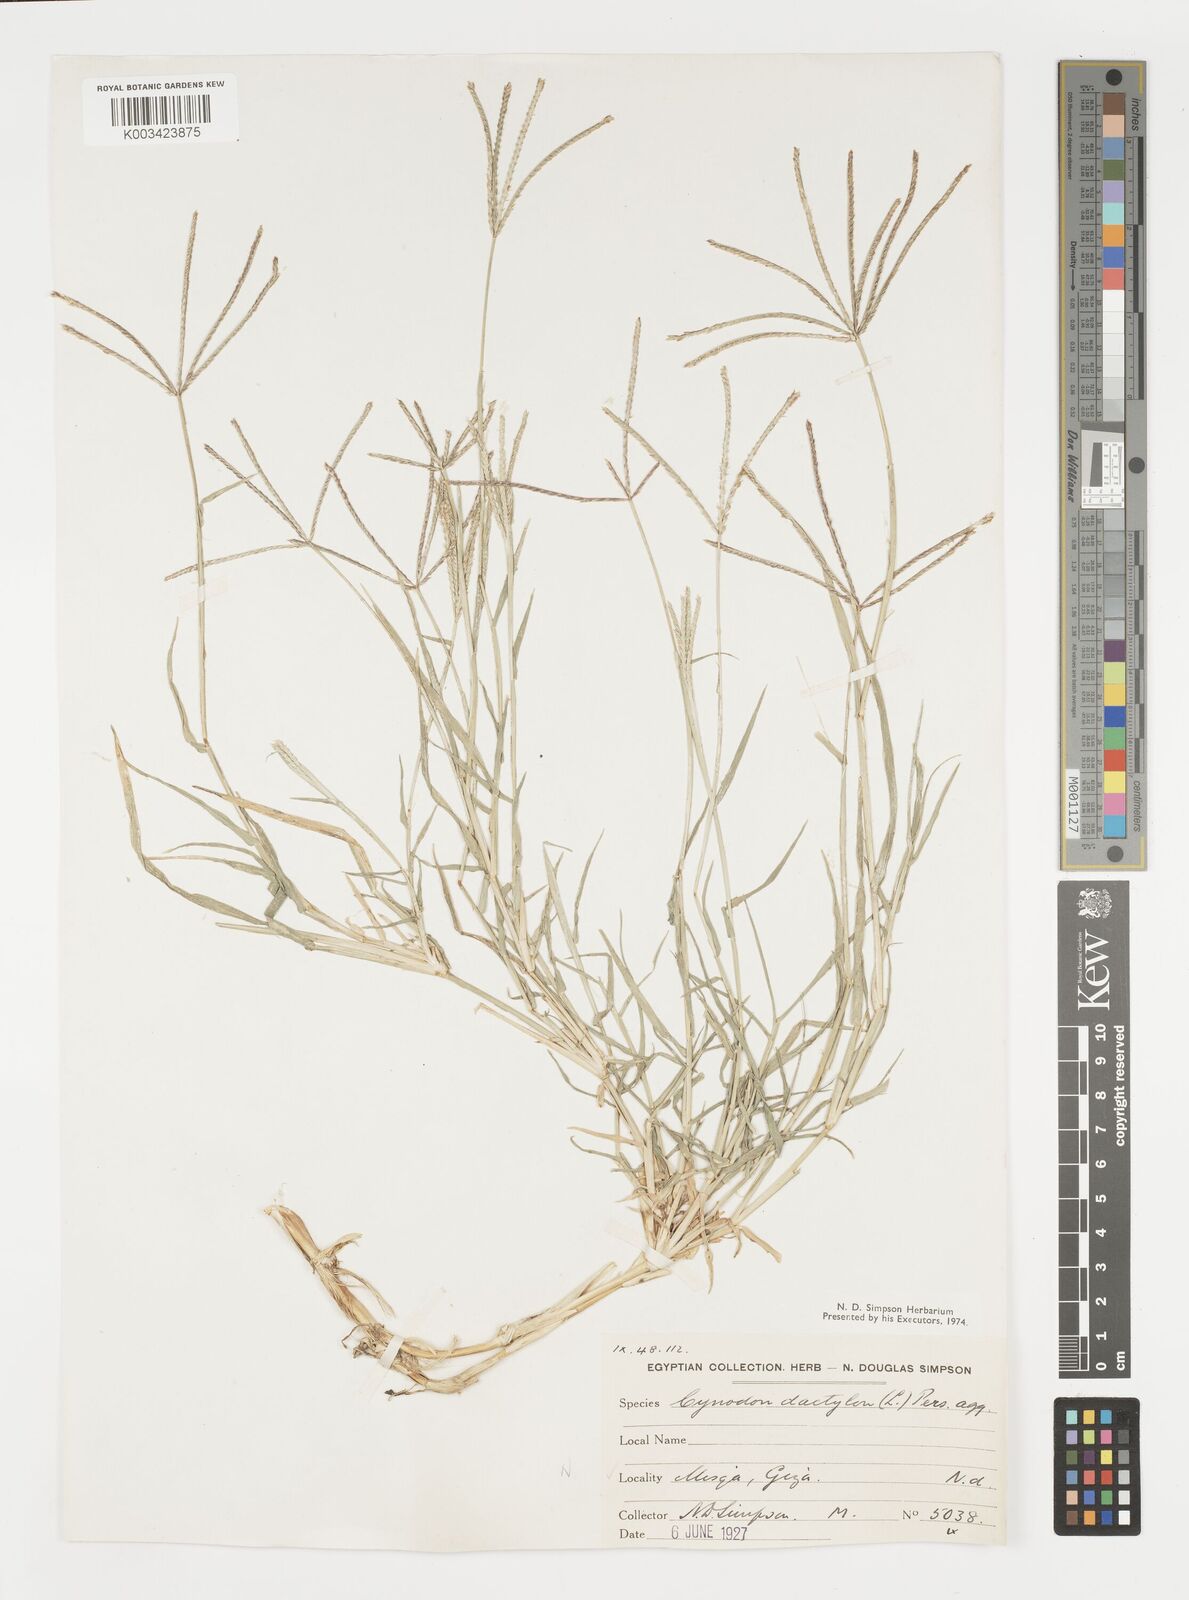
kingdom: Plantae
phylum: Tracheophyta
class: Liliopsida
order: Poales
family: Poaceae
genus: Cynodon
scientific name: Cynodon dactylon
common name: Bermuda grass
